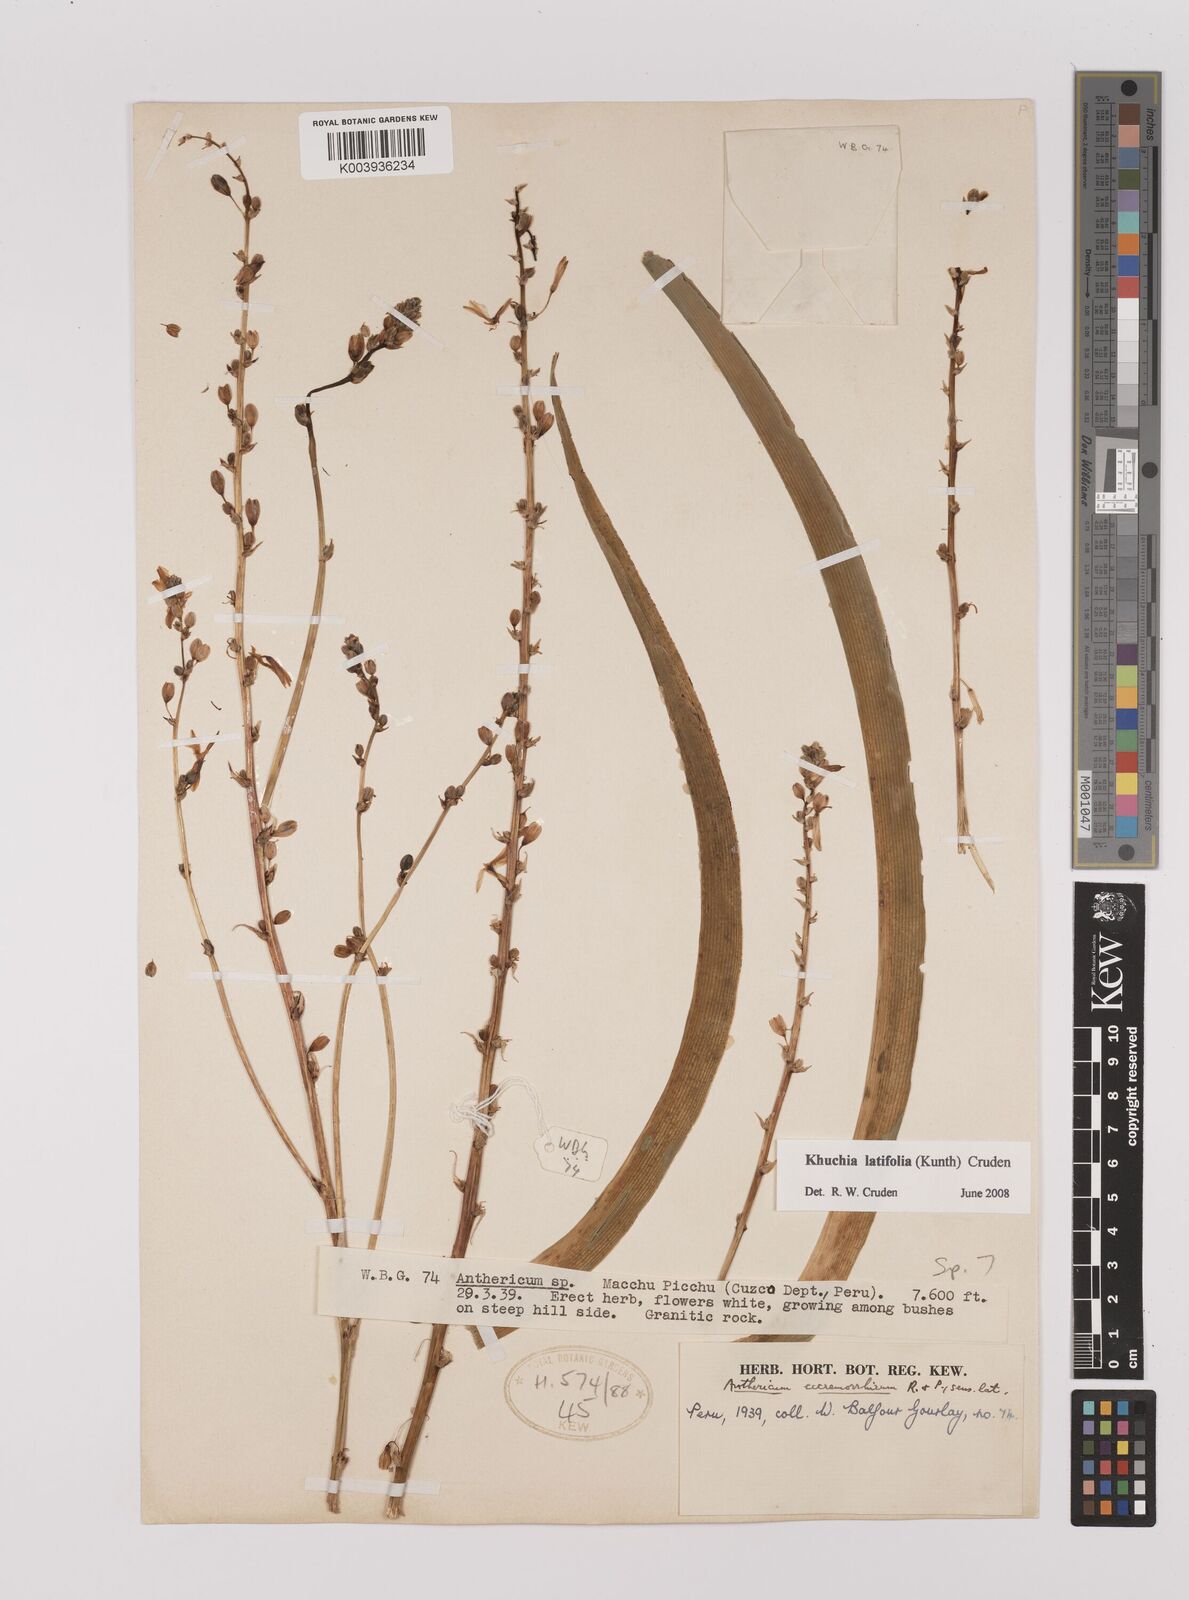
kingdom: Plantae
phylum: Tracheophyta
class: Liliopsida
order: Asparagales
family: Asparagaceae
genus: Echeandia
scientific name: Echeandia
